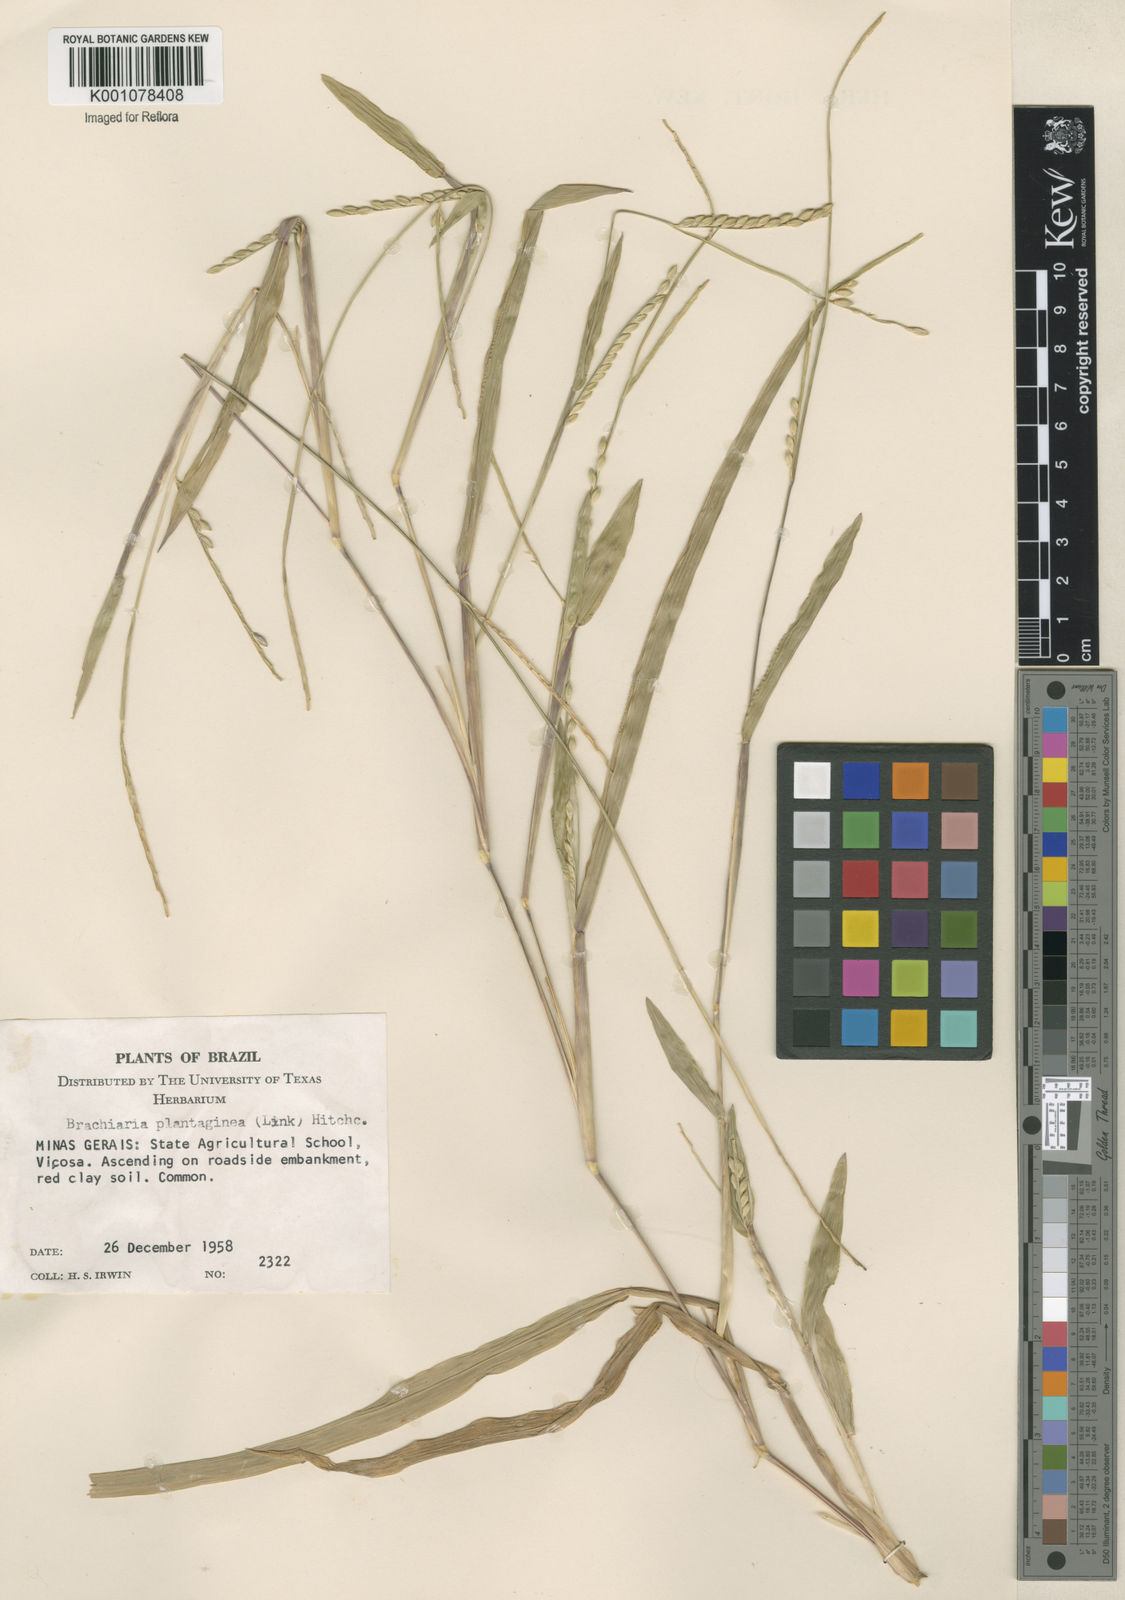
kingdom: Plantae
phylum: Tracheophyta
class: Liliopsida
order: Poales
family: Poaceae
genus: Urochloa
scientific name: Urochloa plantaginea
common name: Plantain signalgrass
